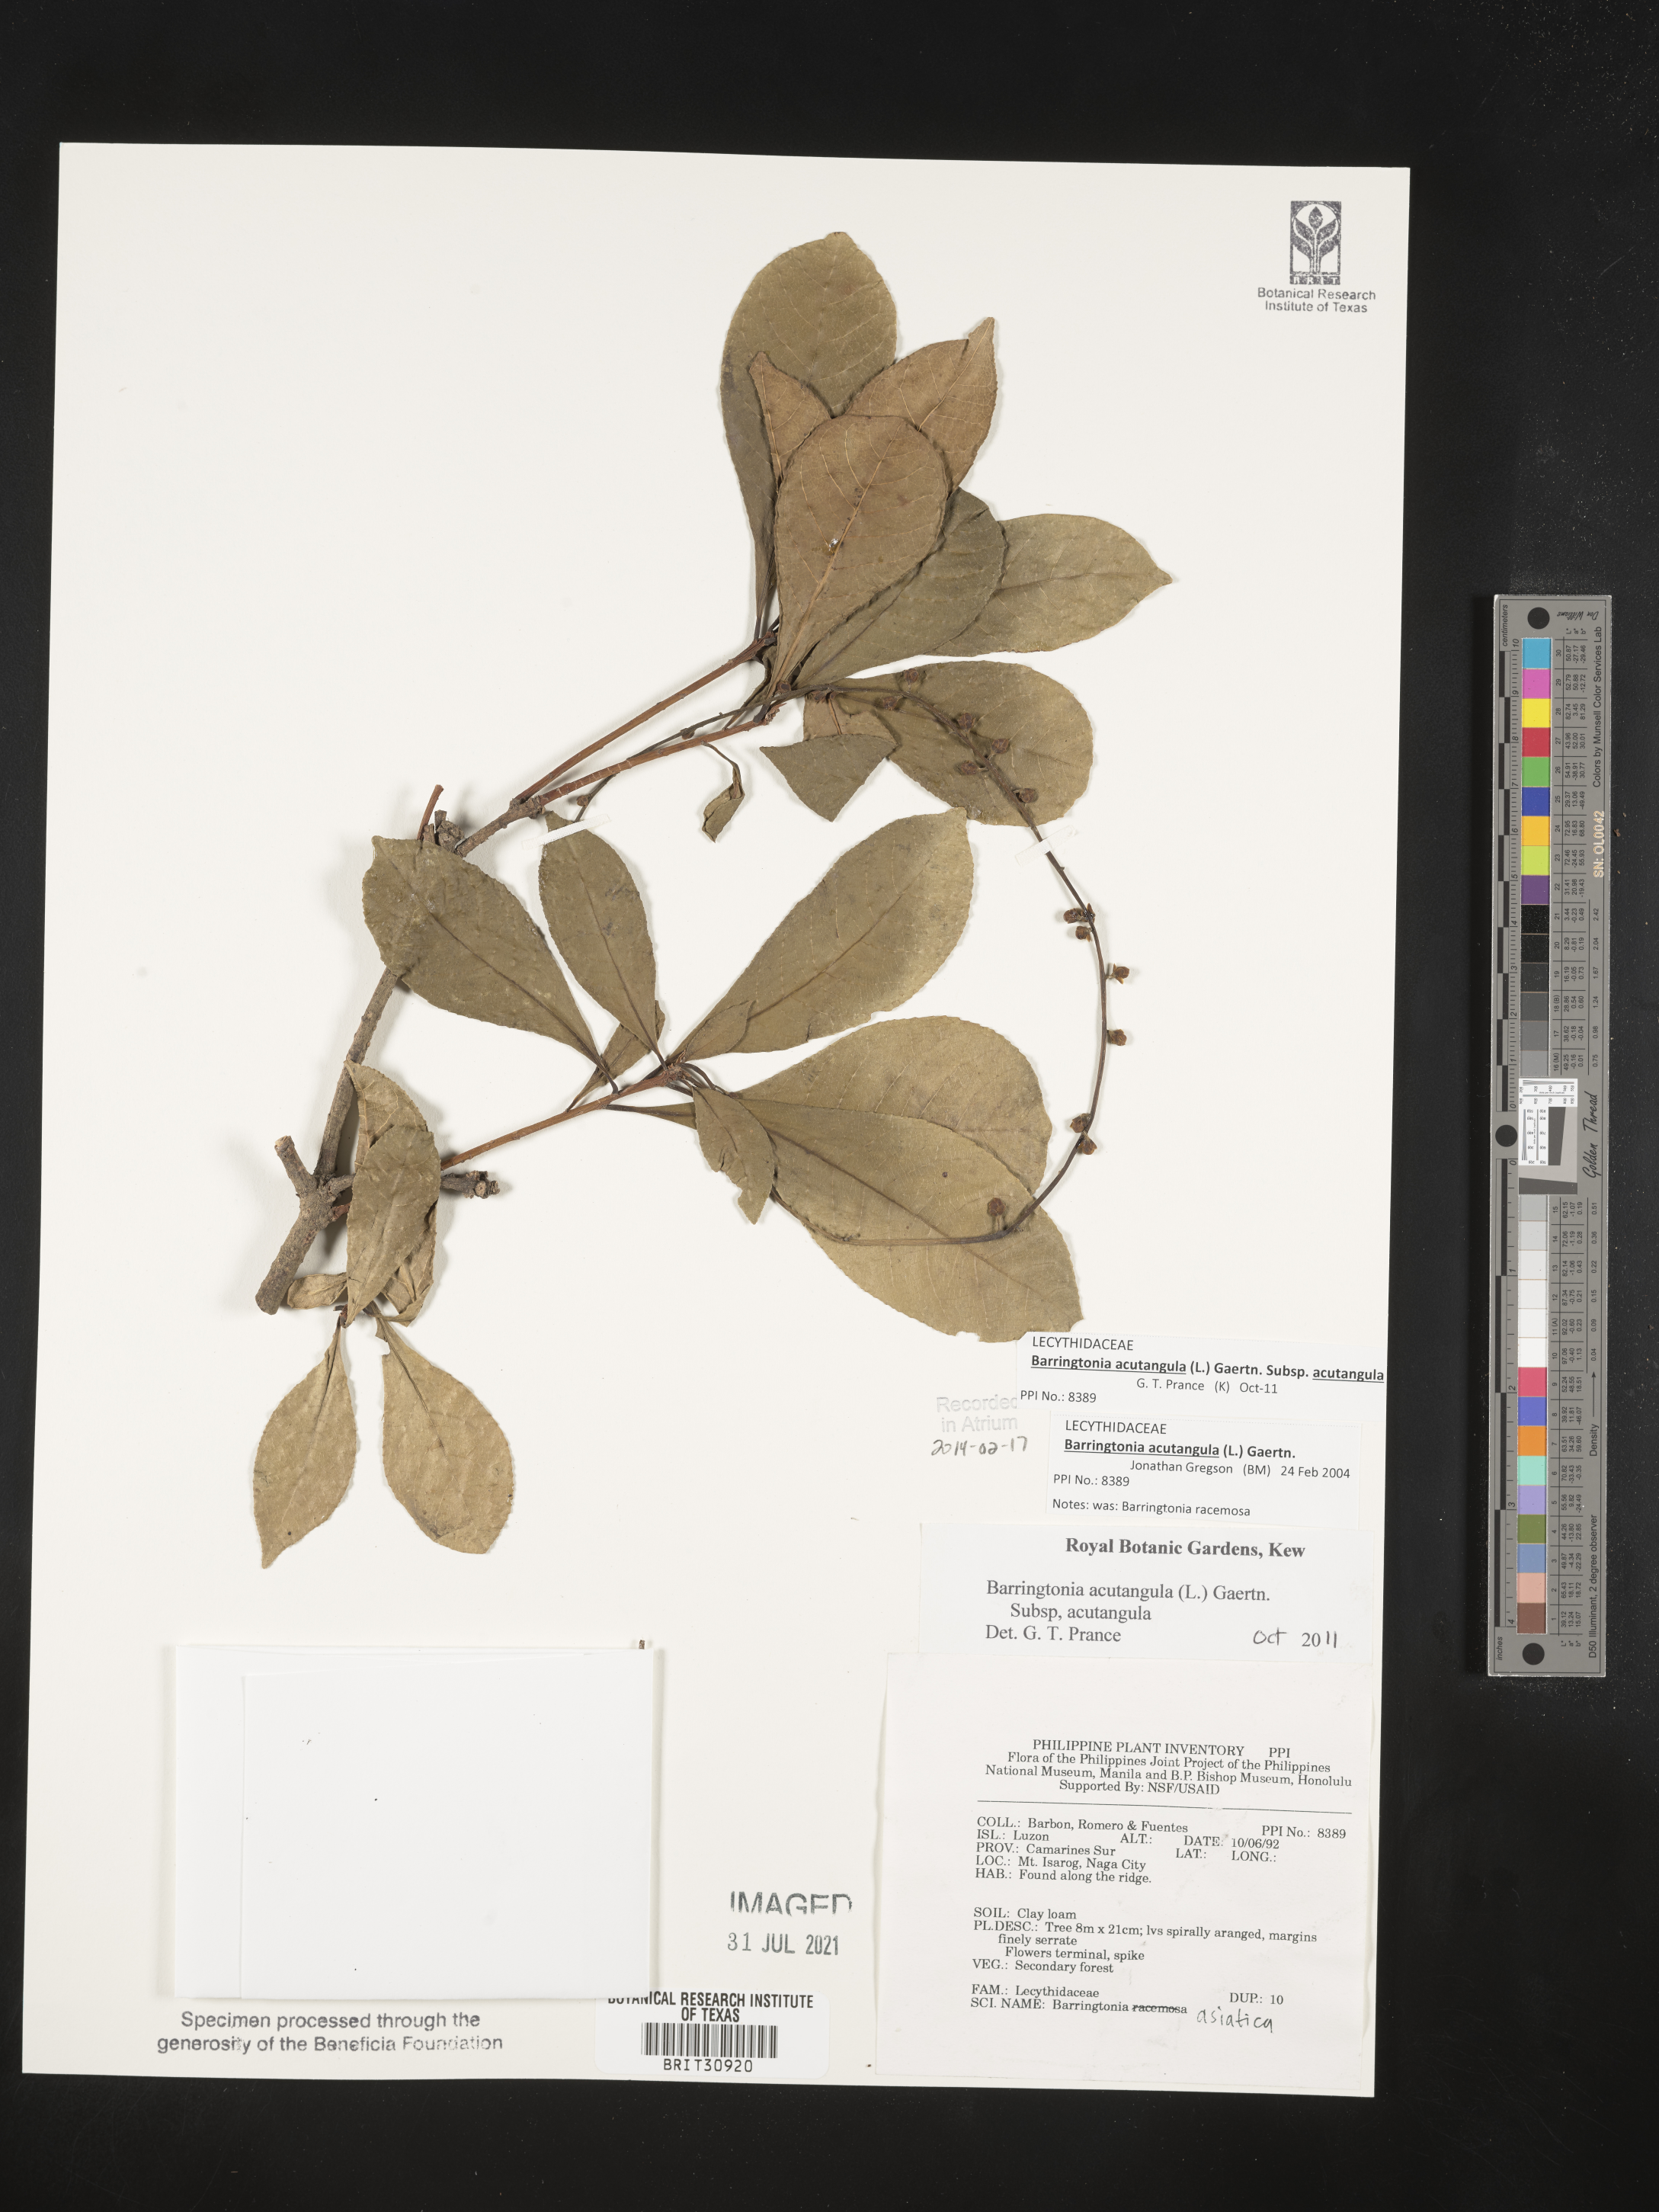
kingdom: Plantae
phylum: Tracheophyta
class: Magnoliopsida
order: Ericales
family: Lecythidaceae
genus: Barringtonia
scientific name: Barringtonia asiatica
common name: Mango-pine
